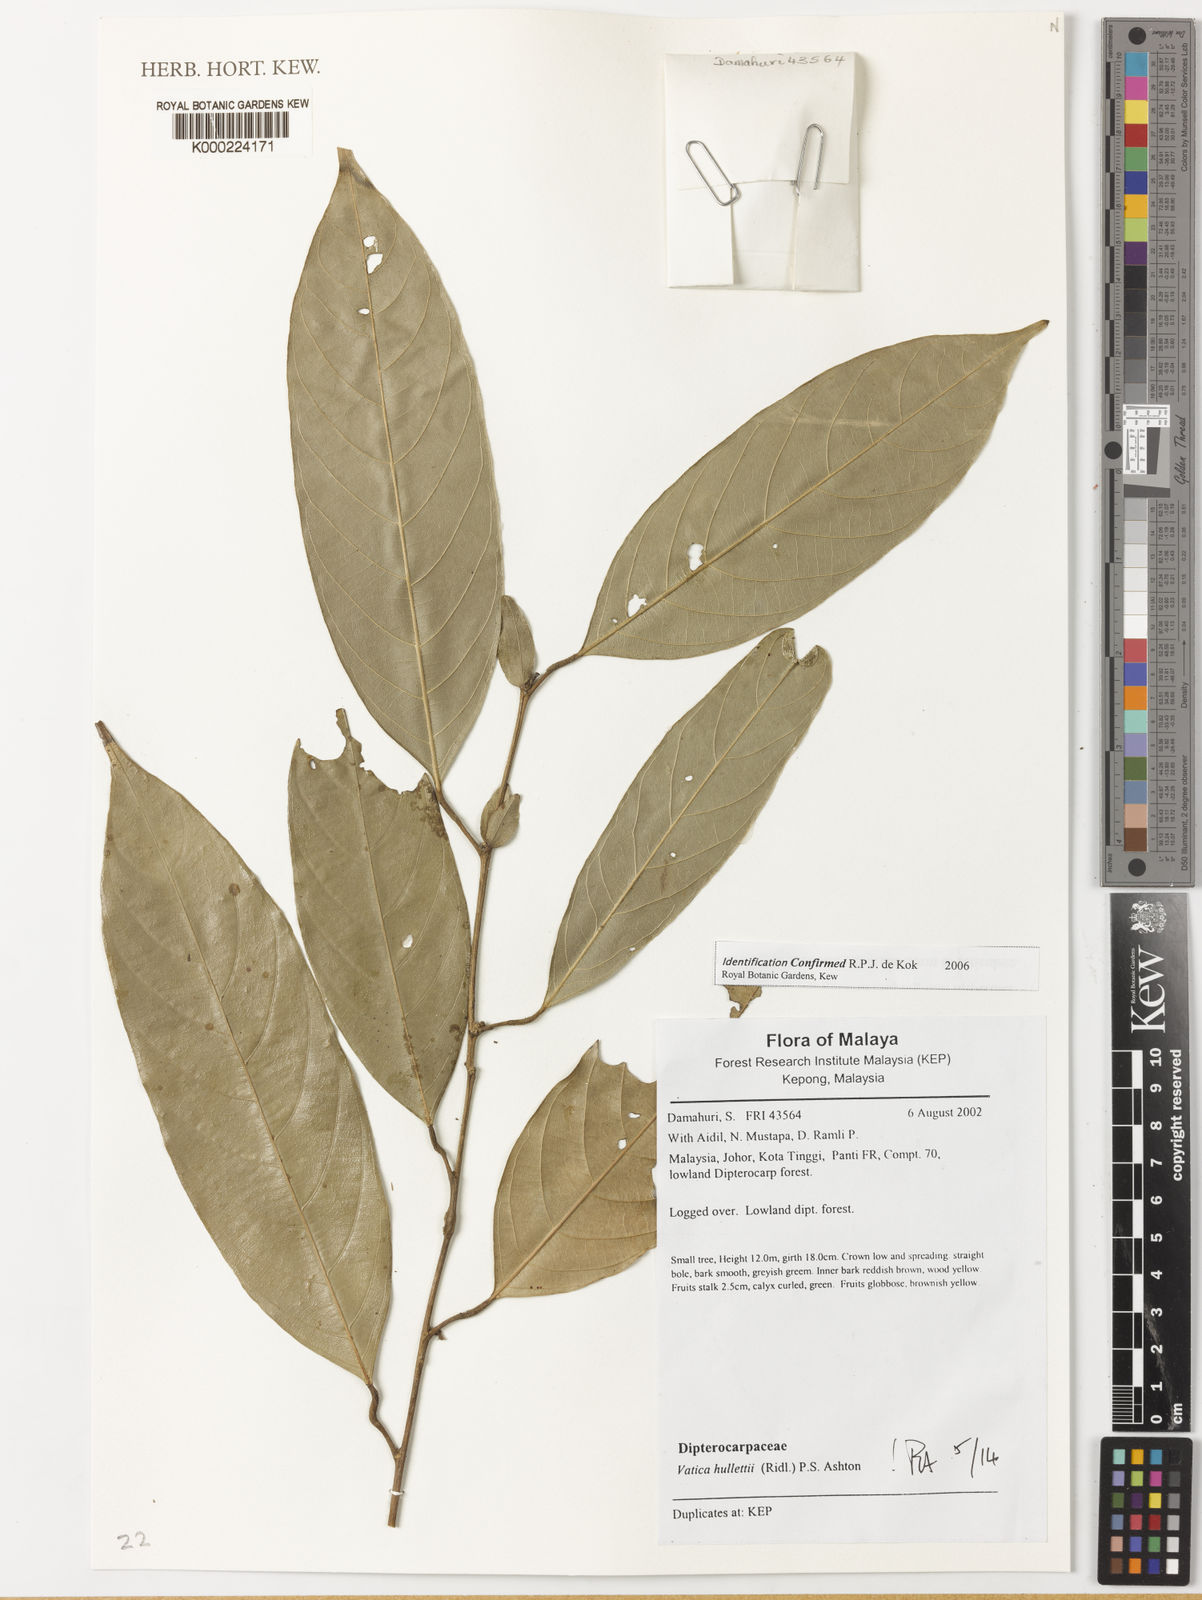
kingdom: Plantae
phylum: Tracheophyta
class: Magnoliopsida
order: Malvales
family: Dipterocarpaceae
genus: Vatica
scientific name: Vatica hullettii
